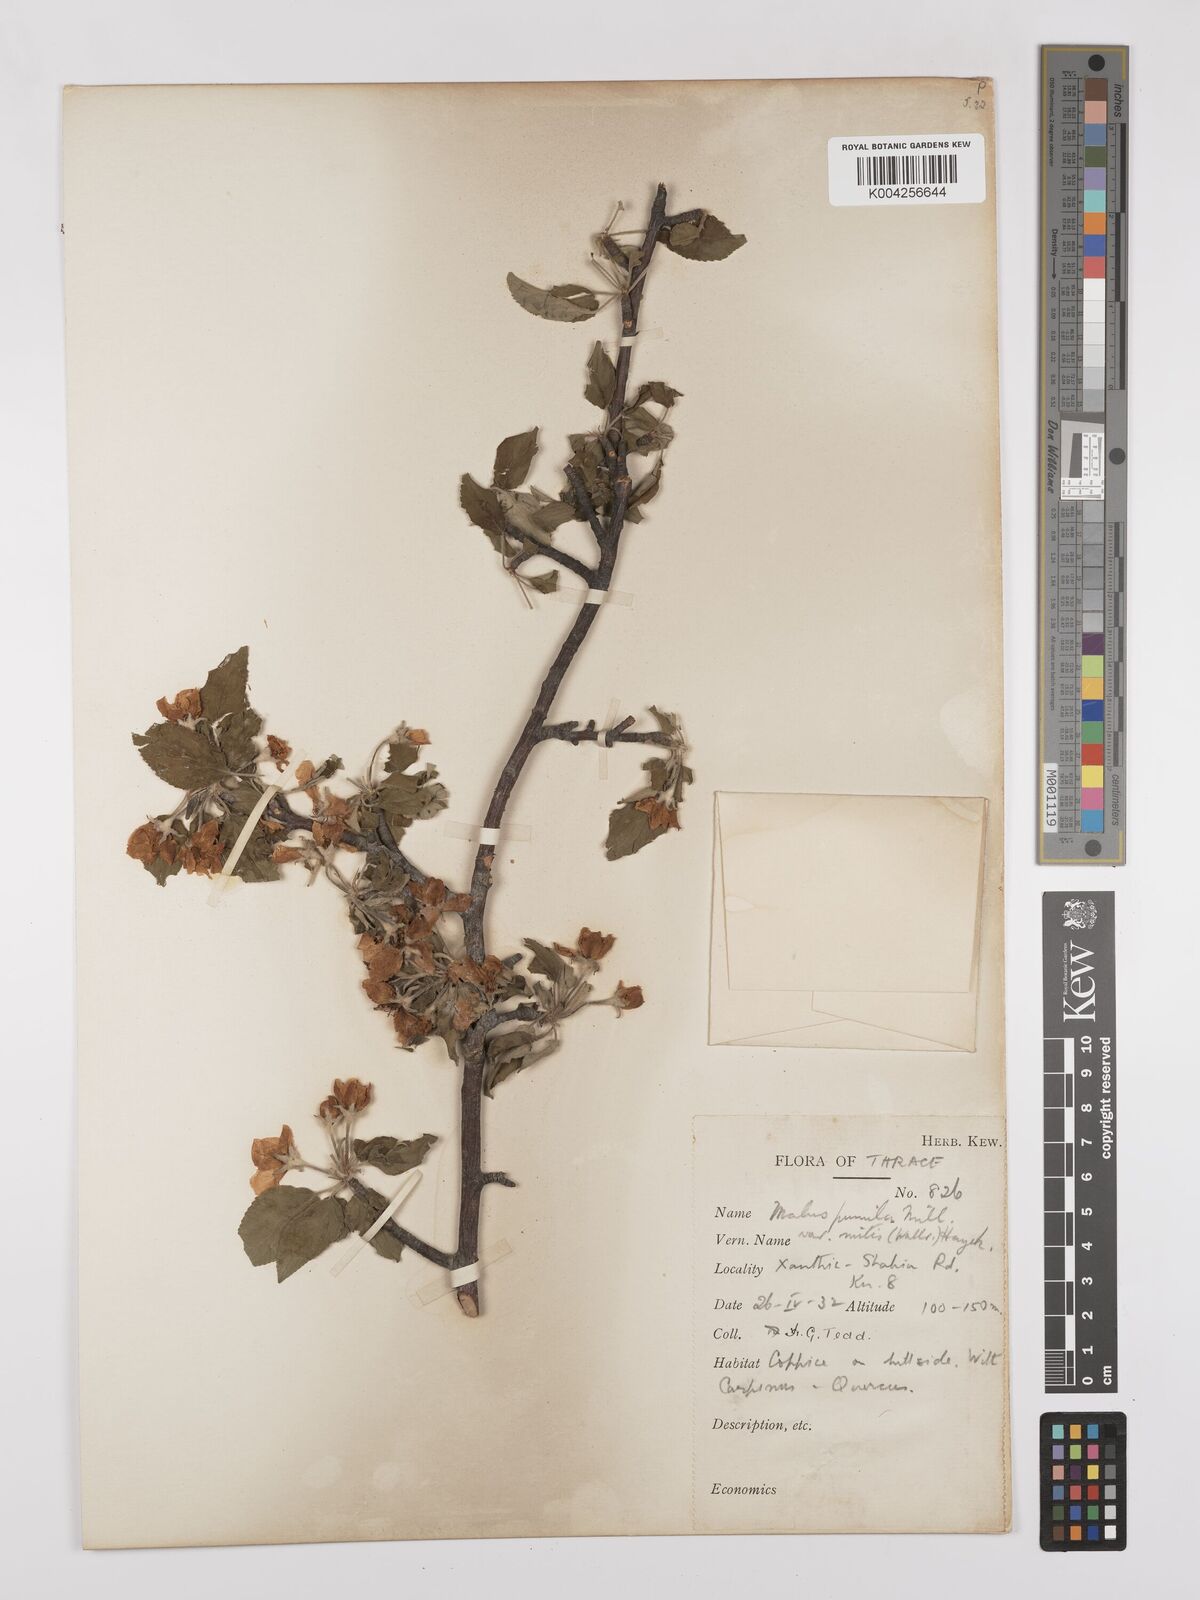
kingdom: Plantae
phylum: Tracheophyta
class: Magnoliopsida
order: Rosales
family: Rosaceae
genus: Malus
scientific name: Malus
